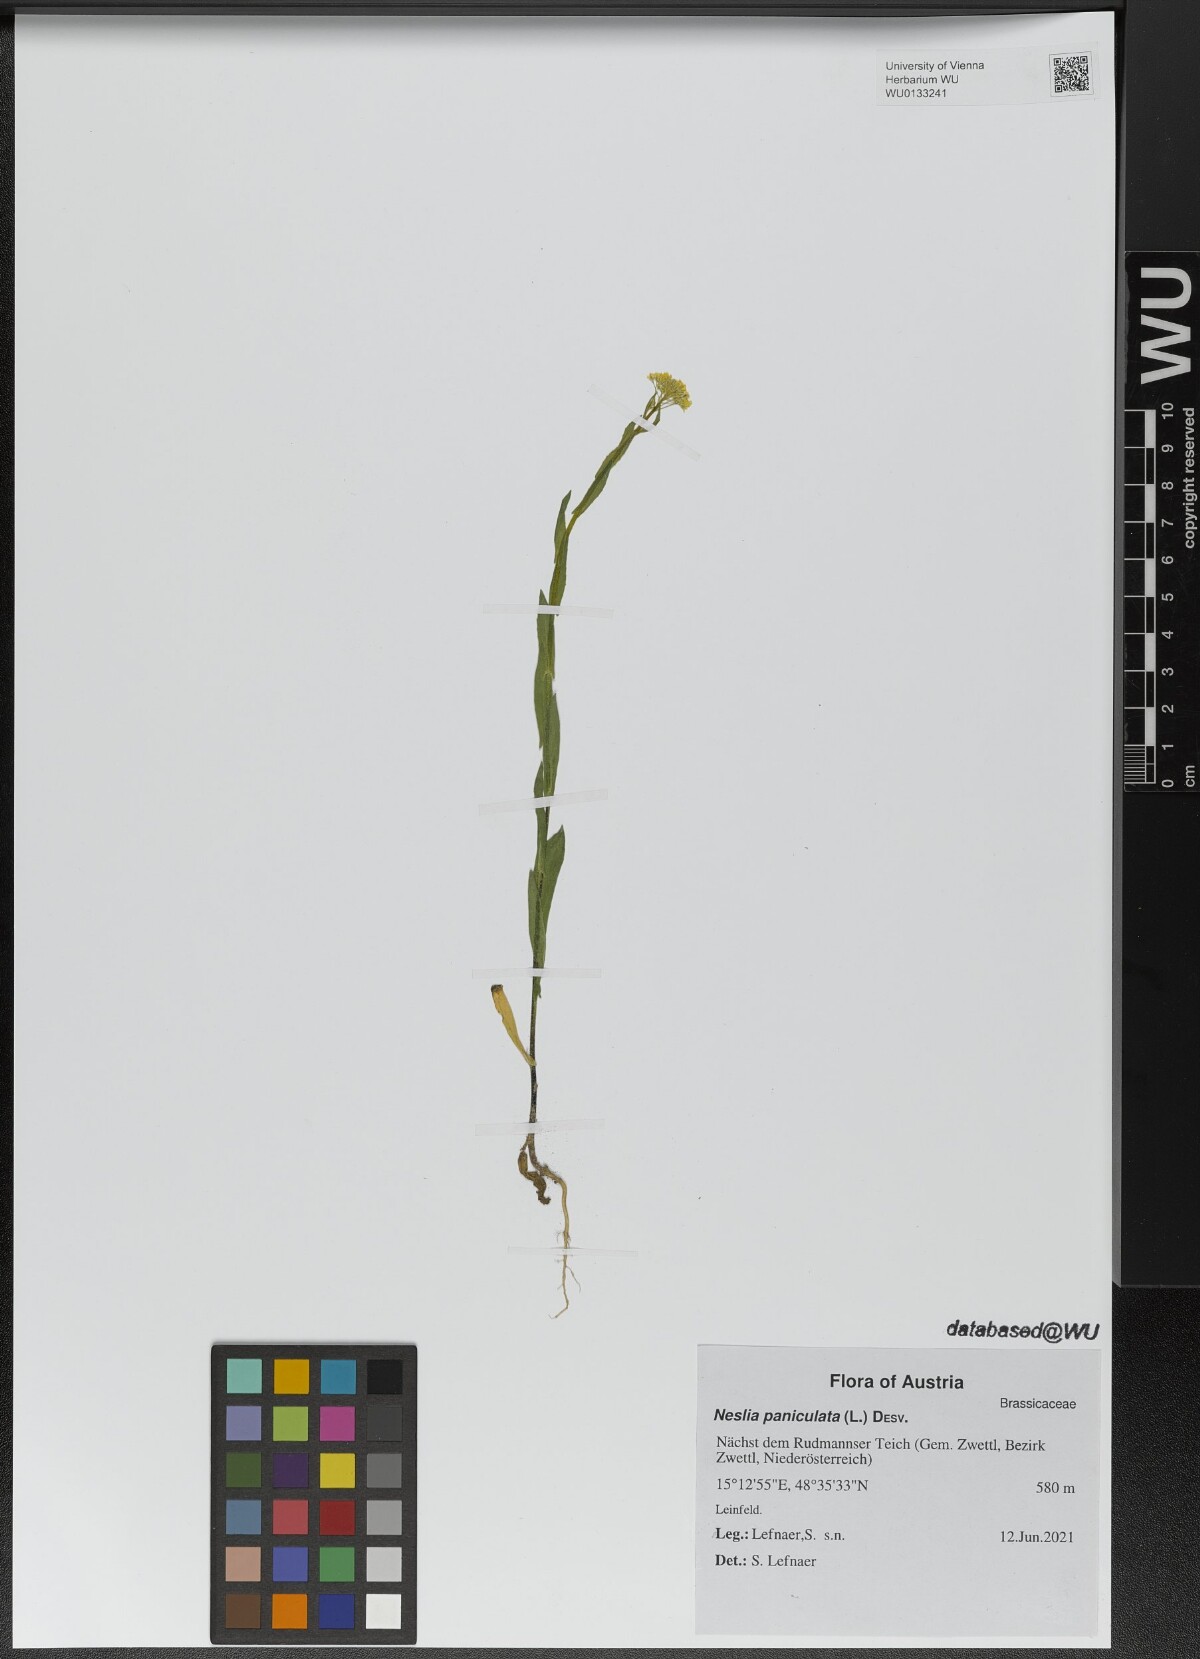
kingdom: Plantae
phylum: Tracheophyta
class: Magnoliopsida
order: Brassicales
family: Brassicaceae
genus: Neslia
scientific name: Neslia paniculata
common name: Ball mustard
